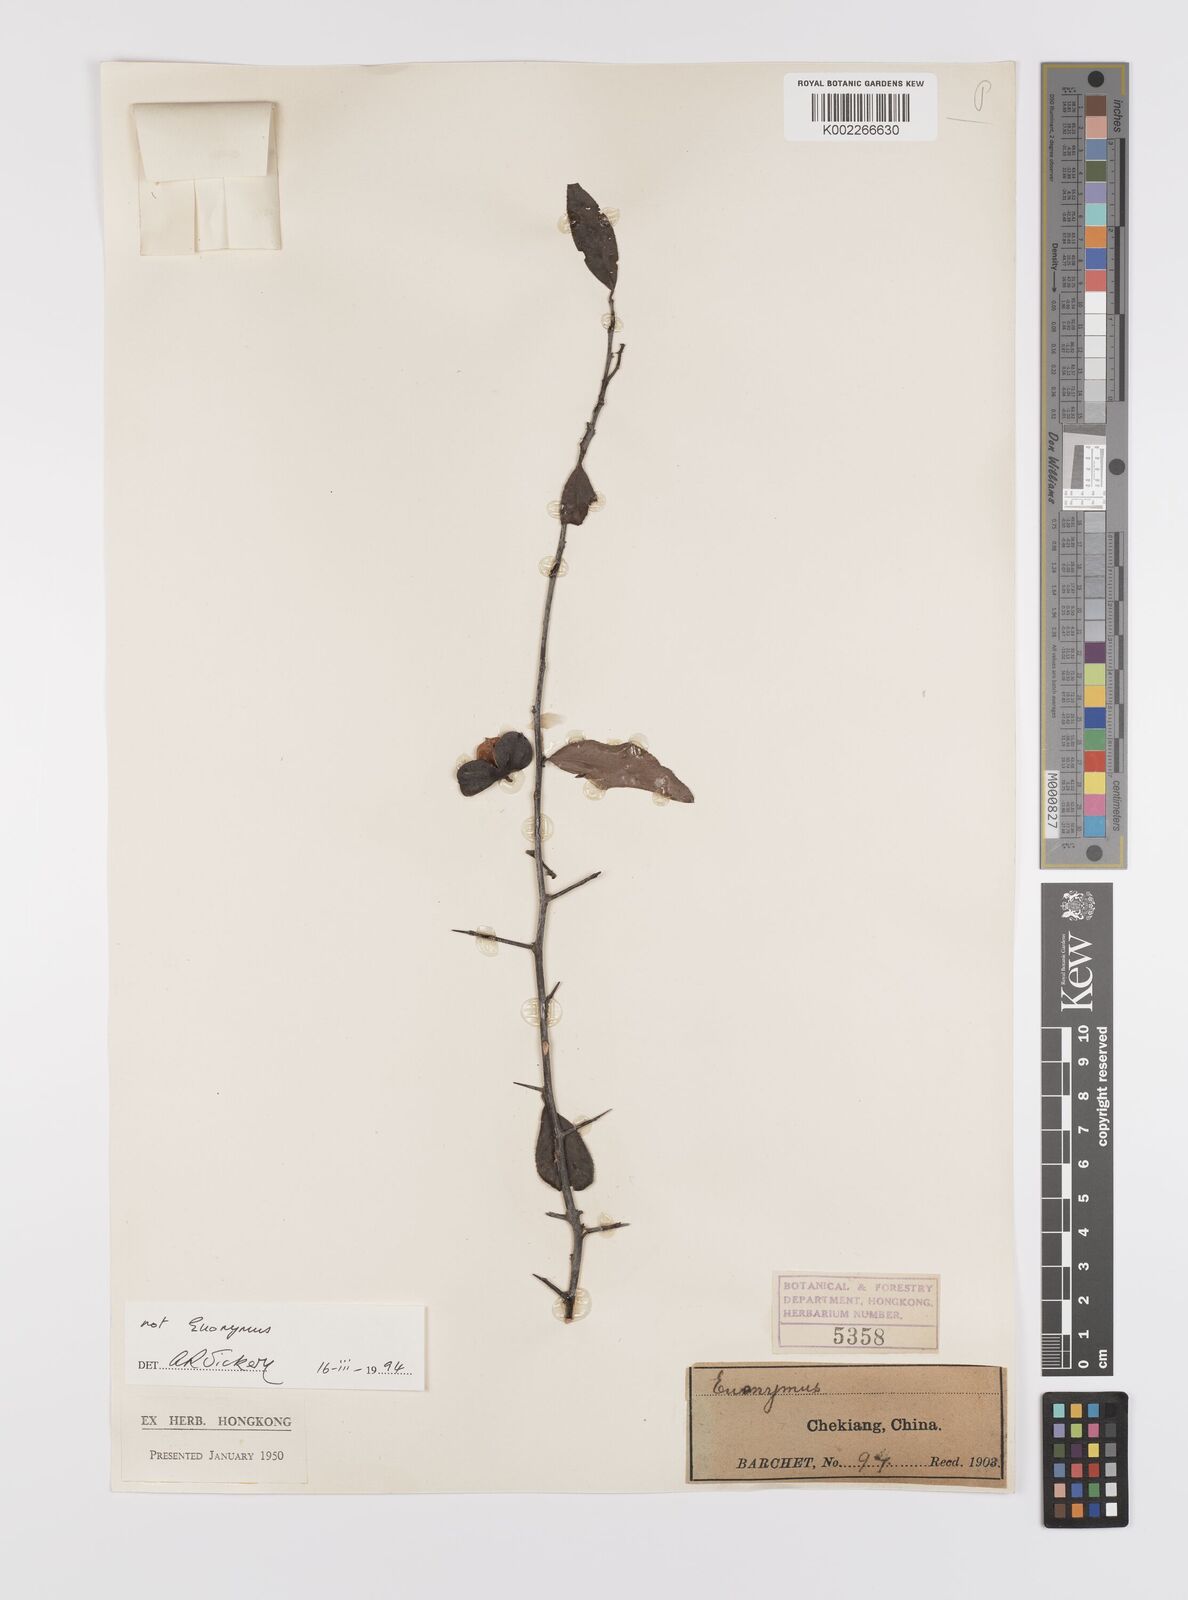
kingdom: Plantae
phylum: Tracheophyta
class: Magnoliopsida
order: Celastrales
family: Celastraceae
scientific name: Celastraceae
